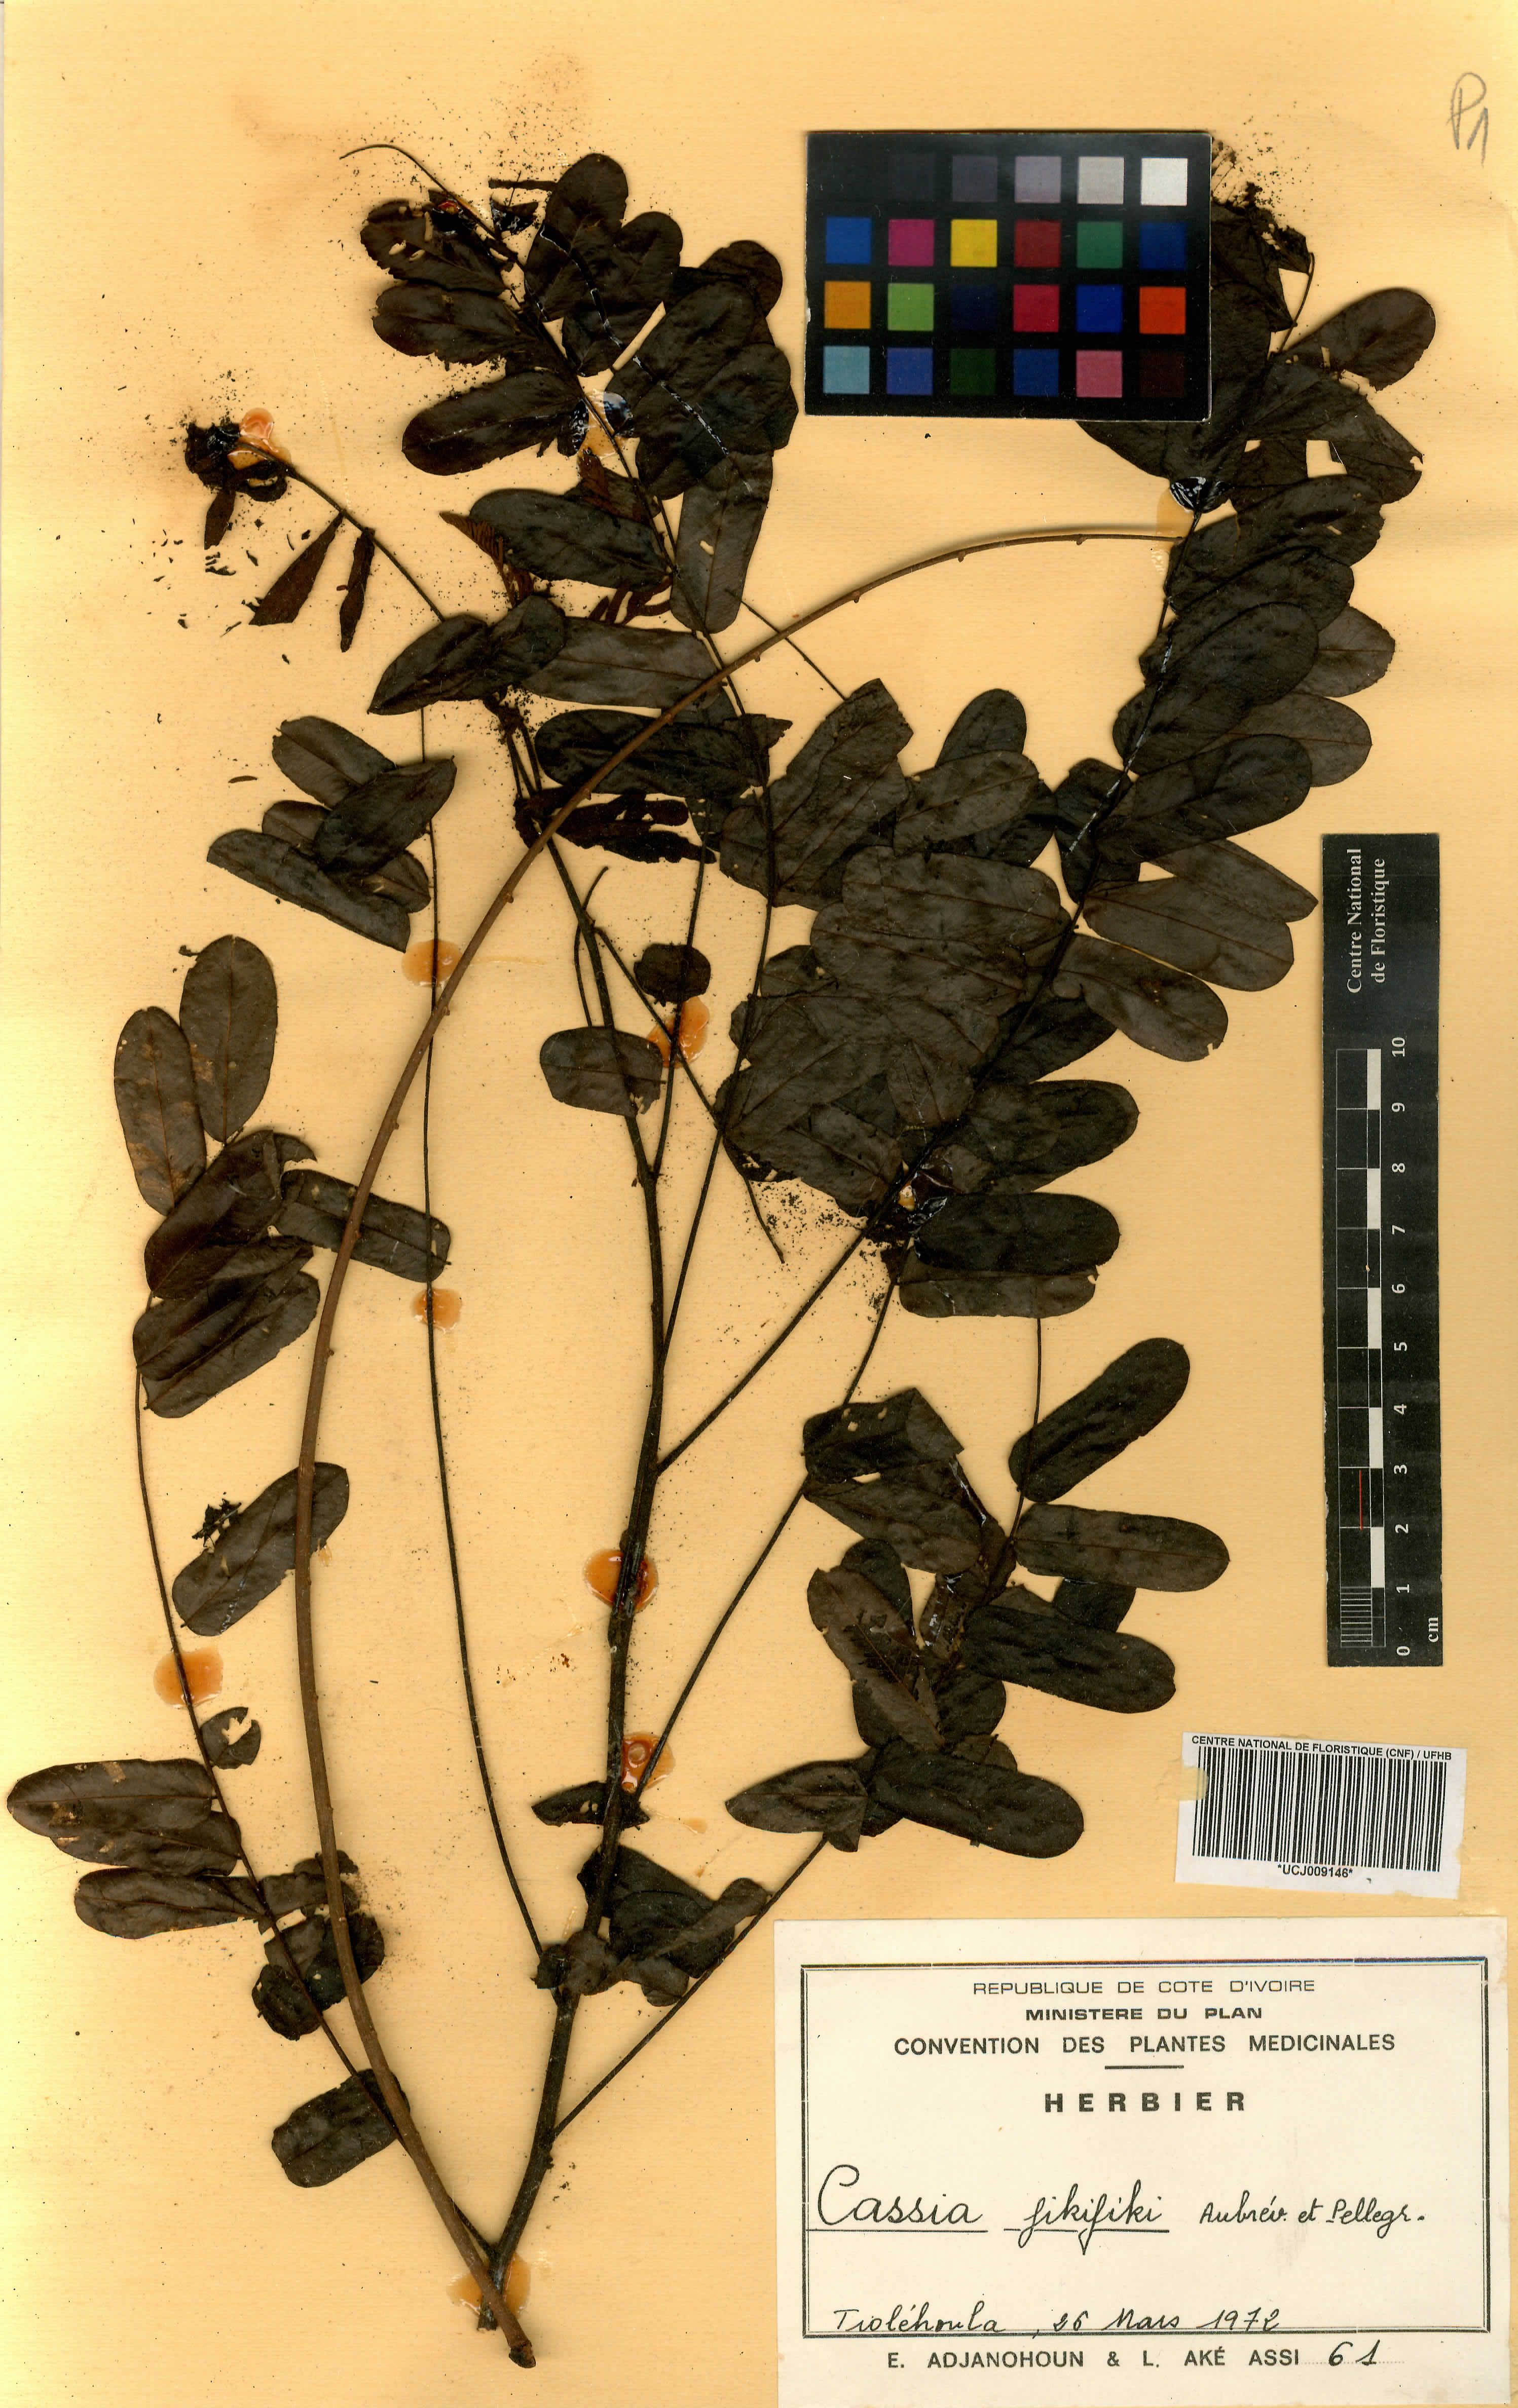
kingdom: Plantae
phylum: Tracheophyta
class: Magnoliopsida
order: Fabales
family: Fabaceae
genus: Cassia
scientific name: Cassia fikifiki
